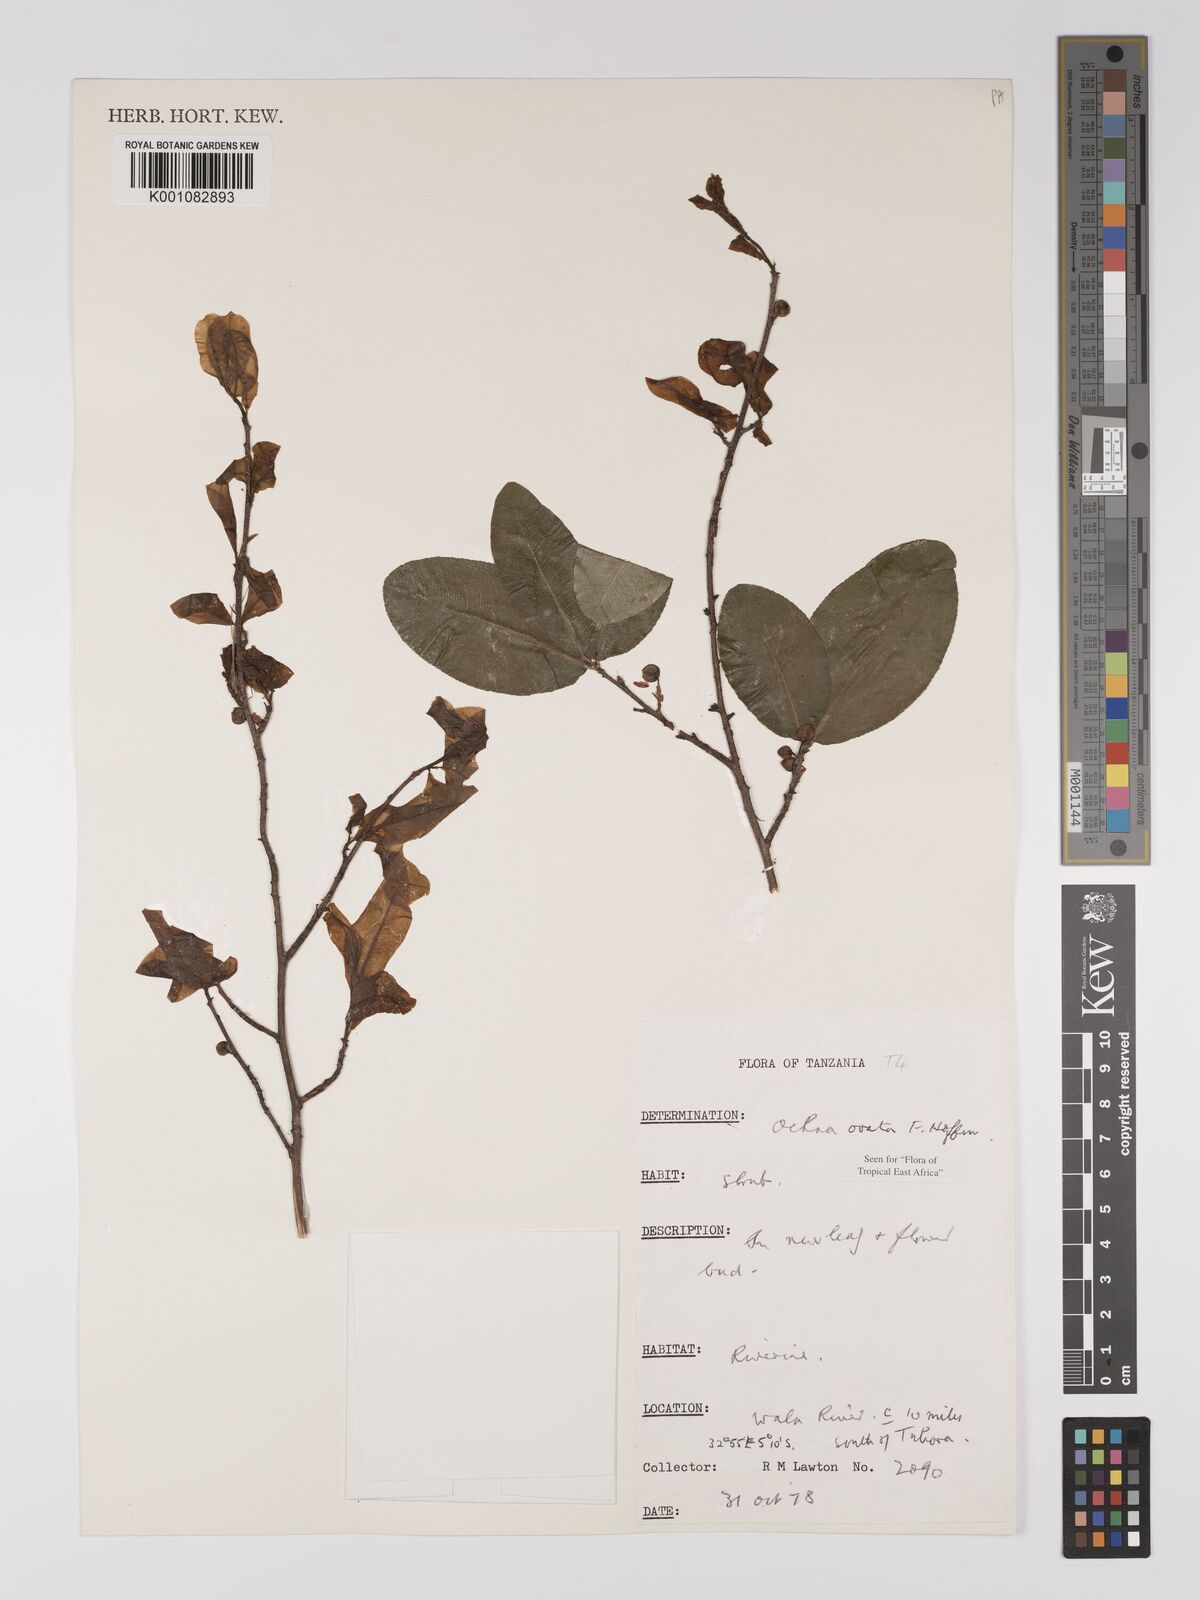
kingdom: Plantae
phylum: Tracheophyta
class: Magnoliopsida
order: Malpighiales
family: Ochnaceae
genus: Ochna
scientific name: Ochna ovata
